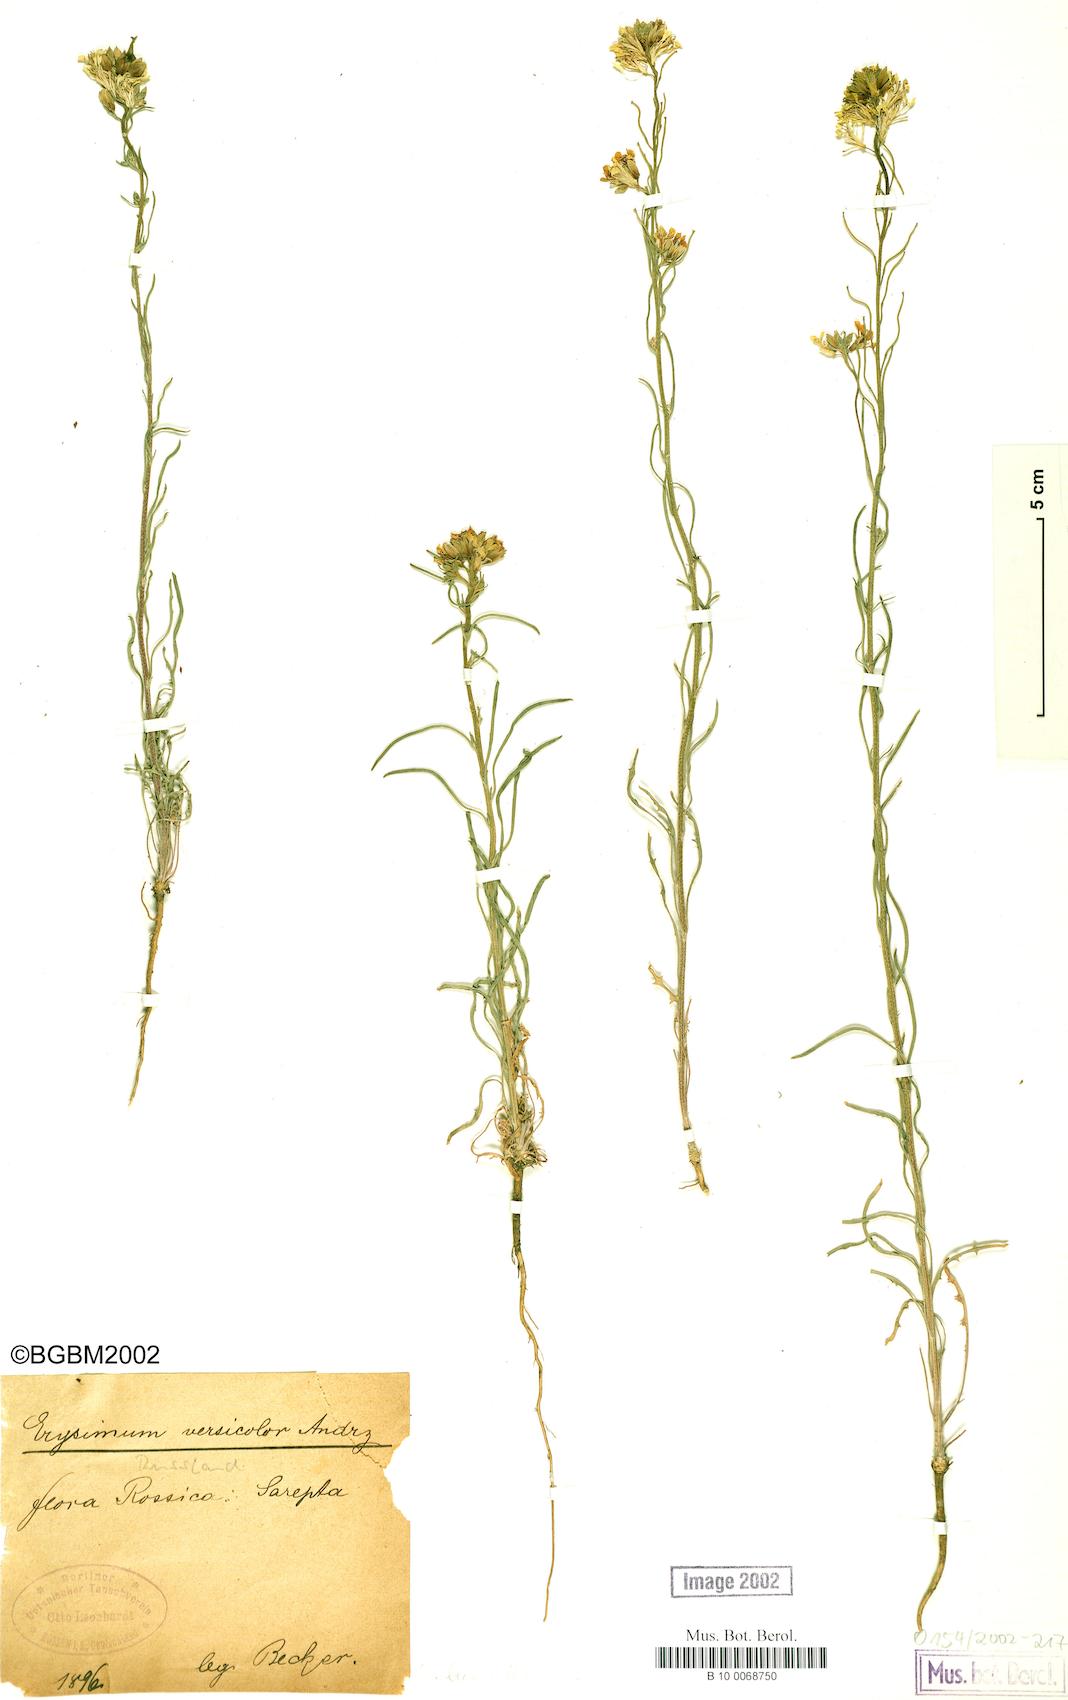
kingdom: Plantae
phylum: Tracheophyta
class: Magnoliopsida
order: Brassicales
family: Brassicaceae
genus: Erysimum
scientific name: Erysimum leucanthemum
